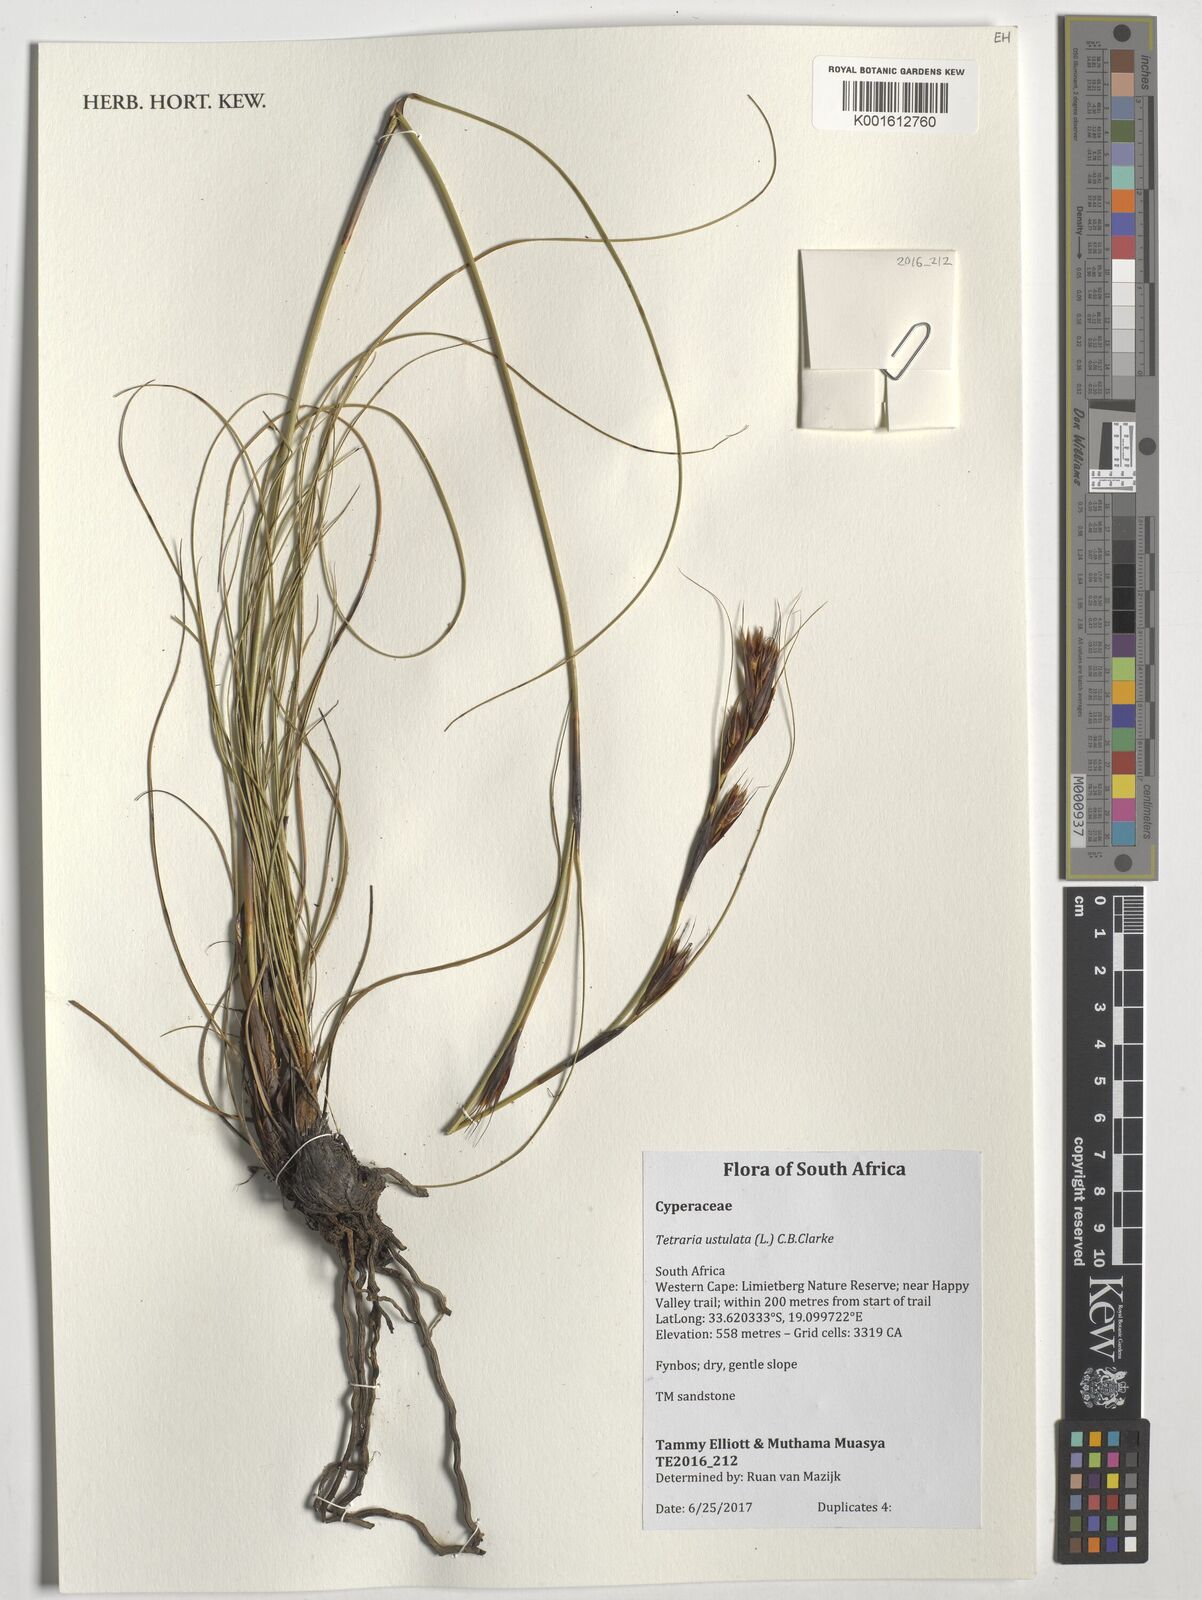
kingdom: Plantae
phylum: Tracheophyta
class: Liliopsida
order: Poales
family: Cyperaceae
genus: Tetraria
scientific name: Tetraria ustulata
